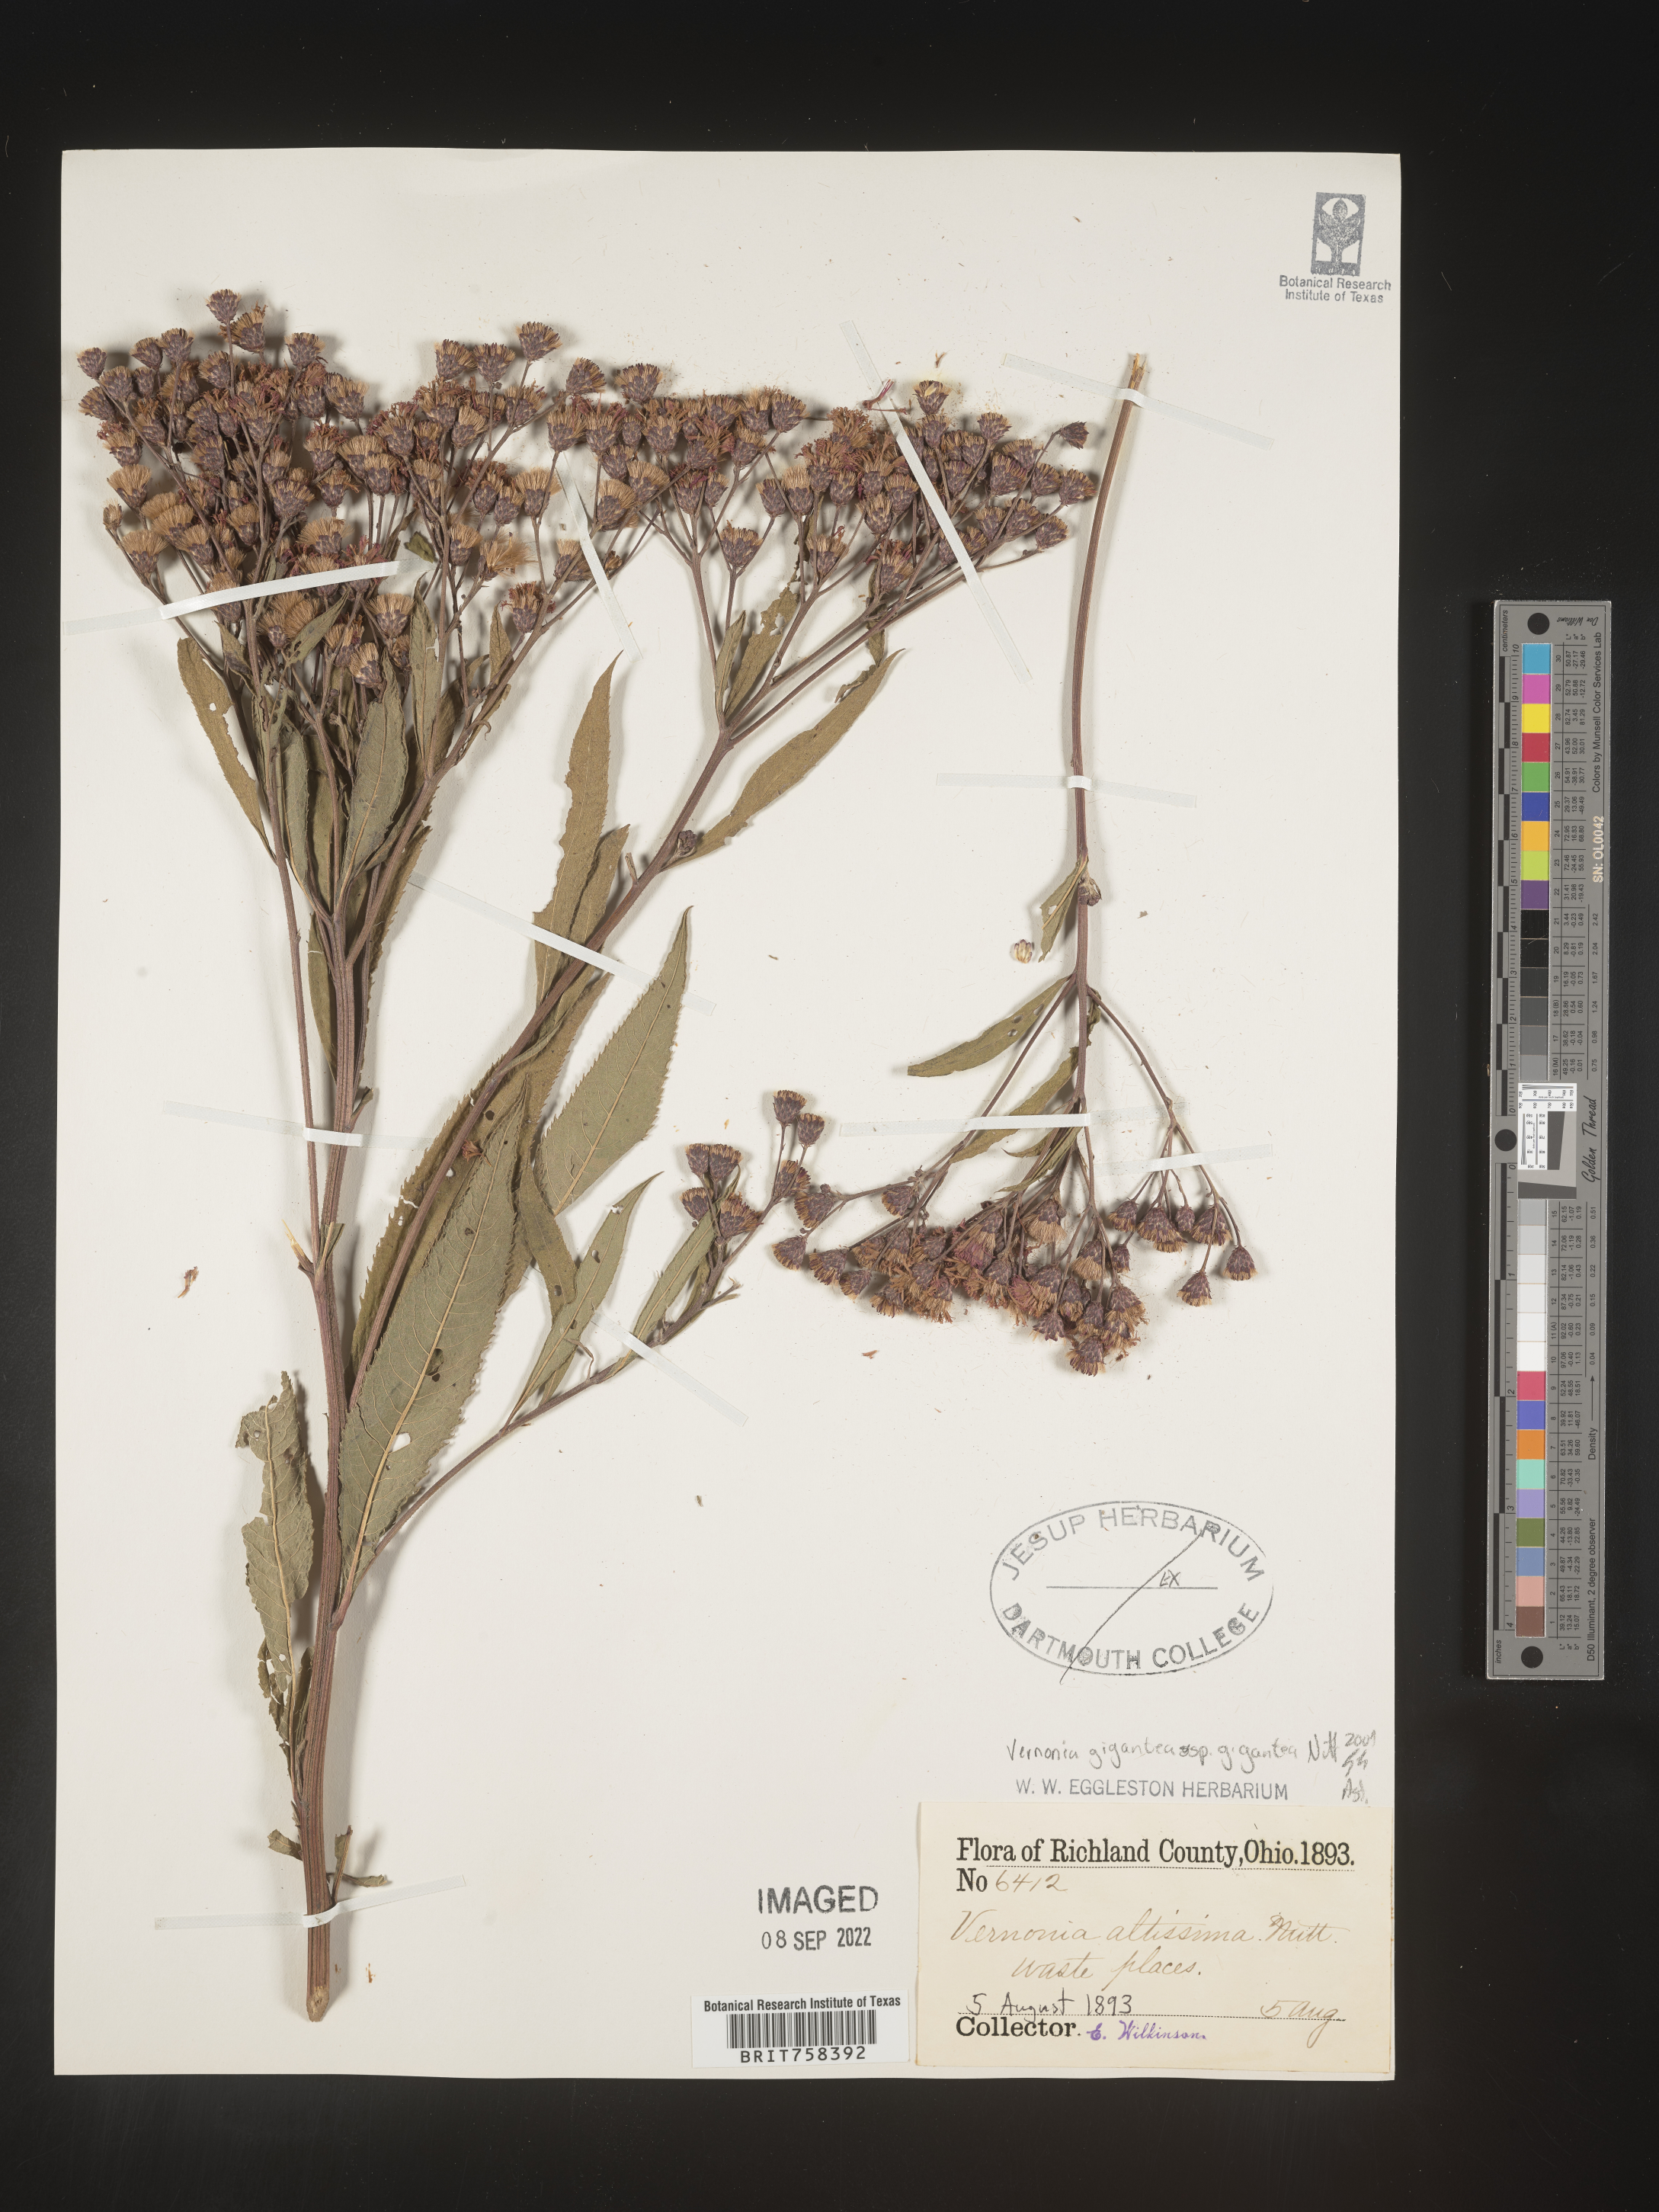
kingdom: Plantae
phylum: Tracheophyta
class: Magnoliopsida
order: Asterales
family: Asteraceae
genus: Vernonia
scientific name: Vernonia gigantea
